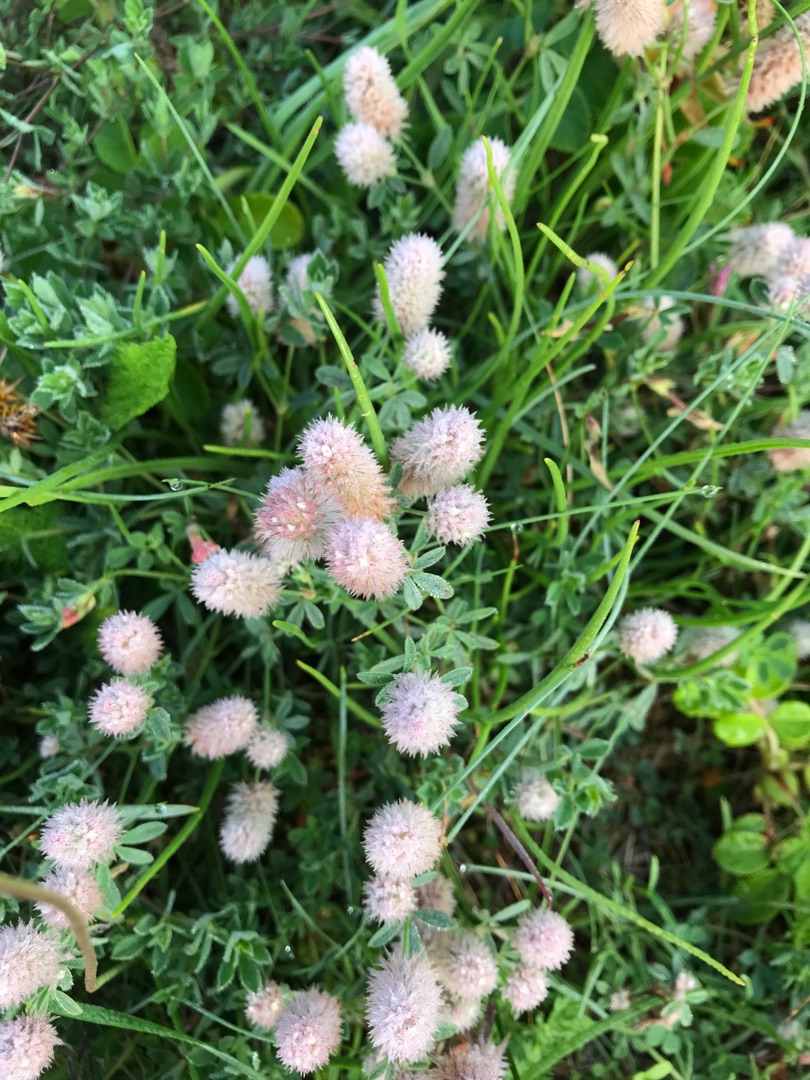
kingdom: Plantae
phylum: Tracheophyta
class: Magnoliopsida
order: Fabales
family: Fabaceae
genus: Trifolium
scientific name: Trifolium arvense
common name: Hare-kløver
